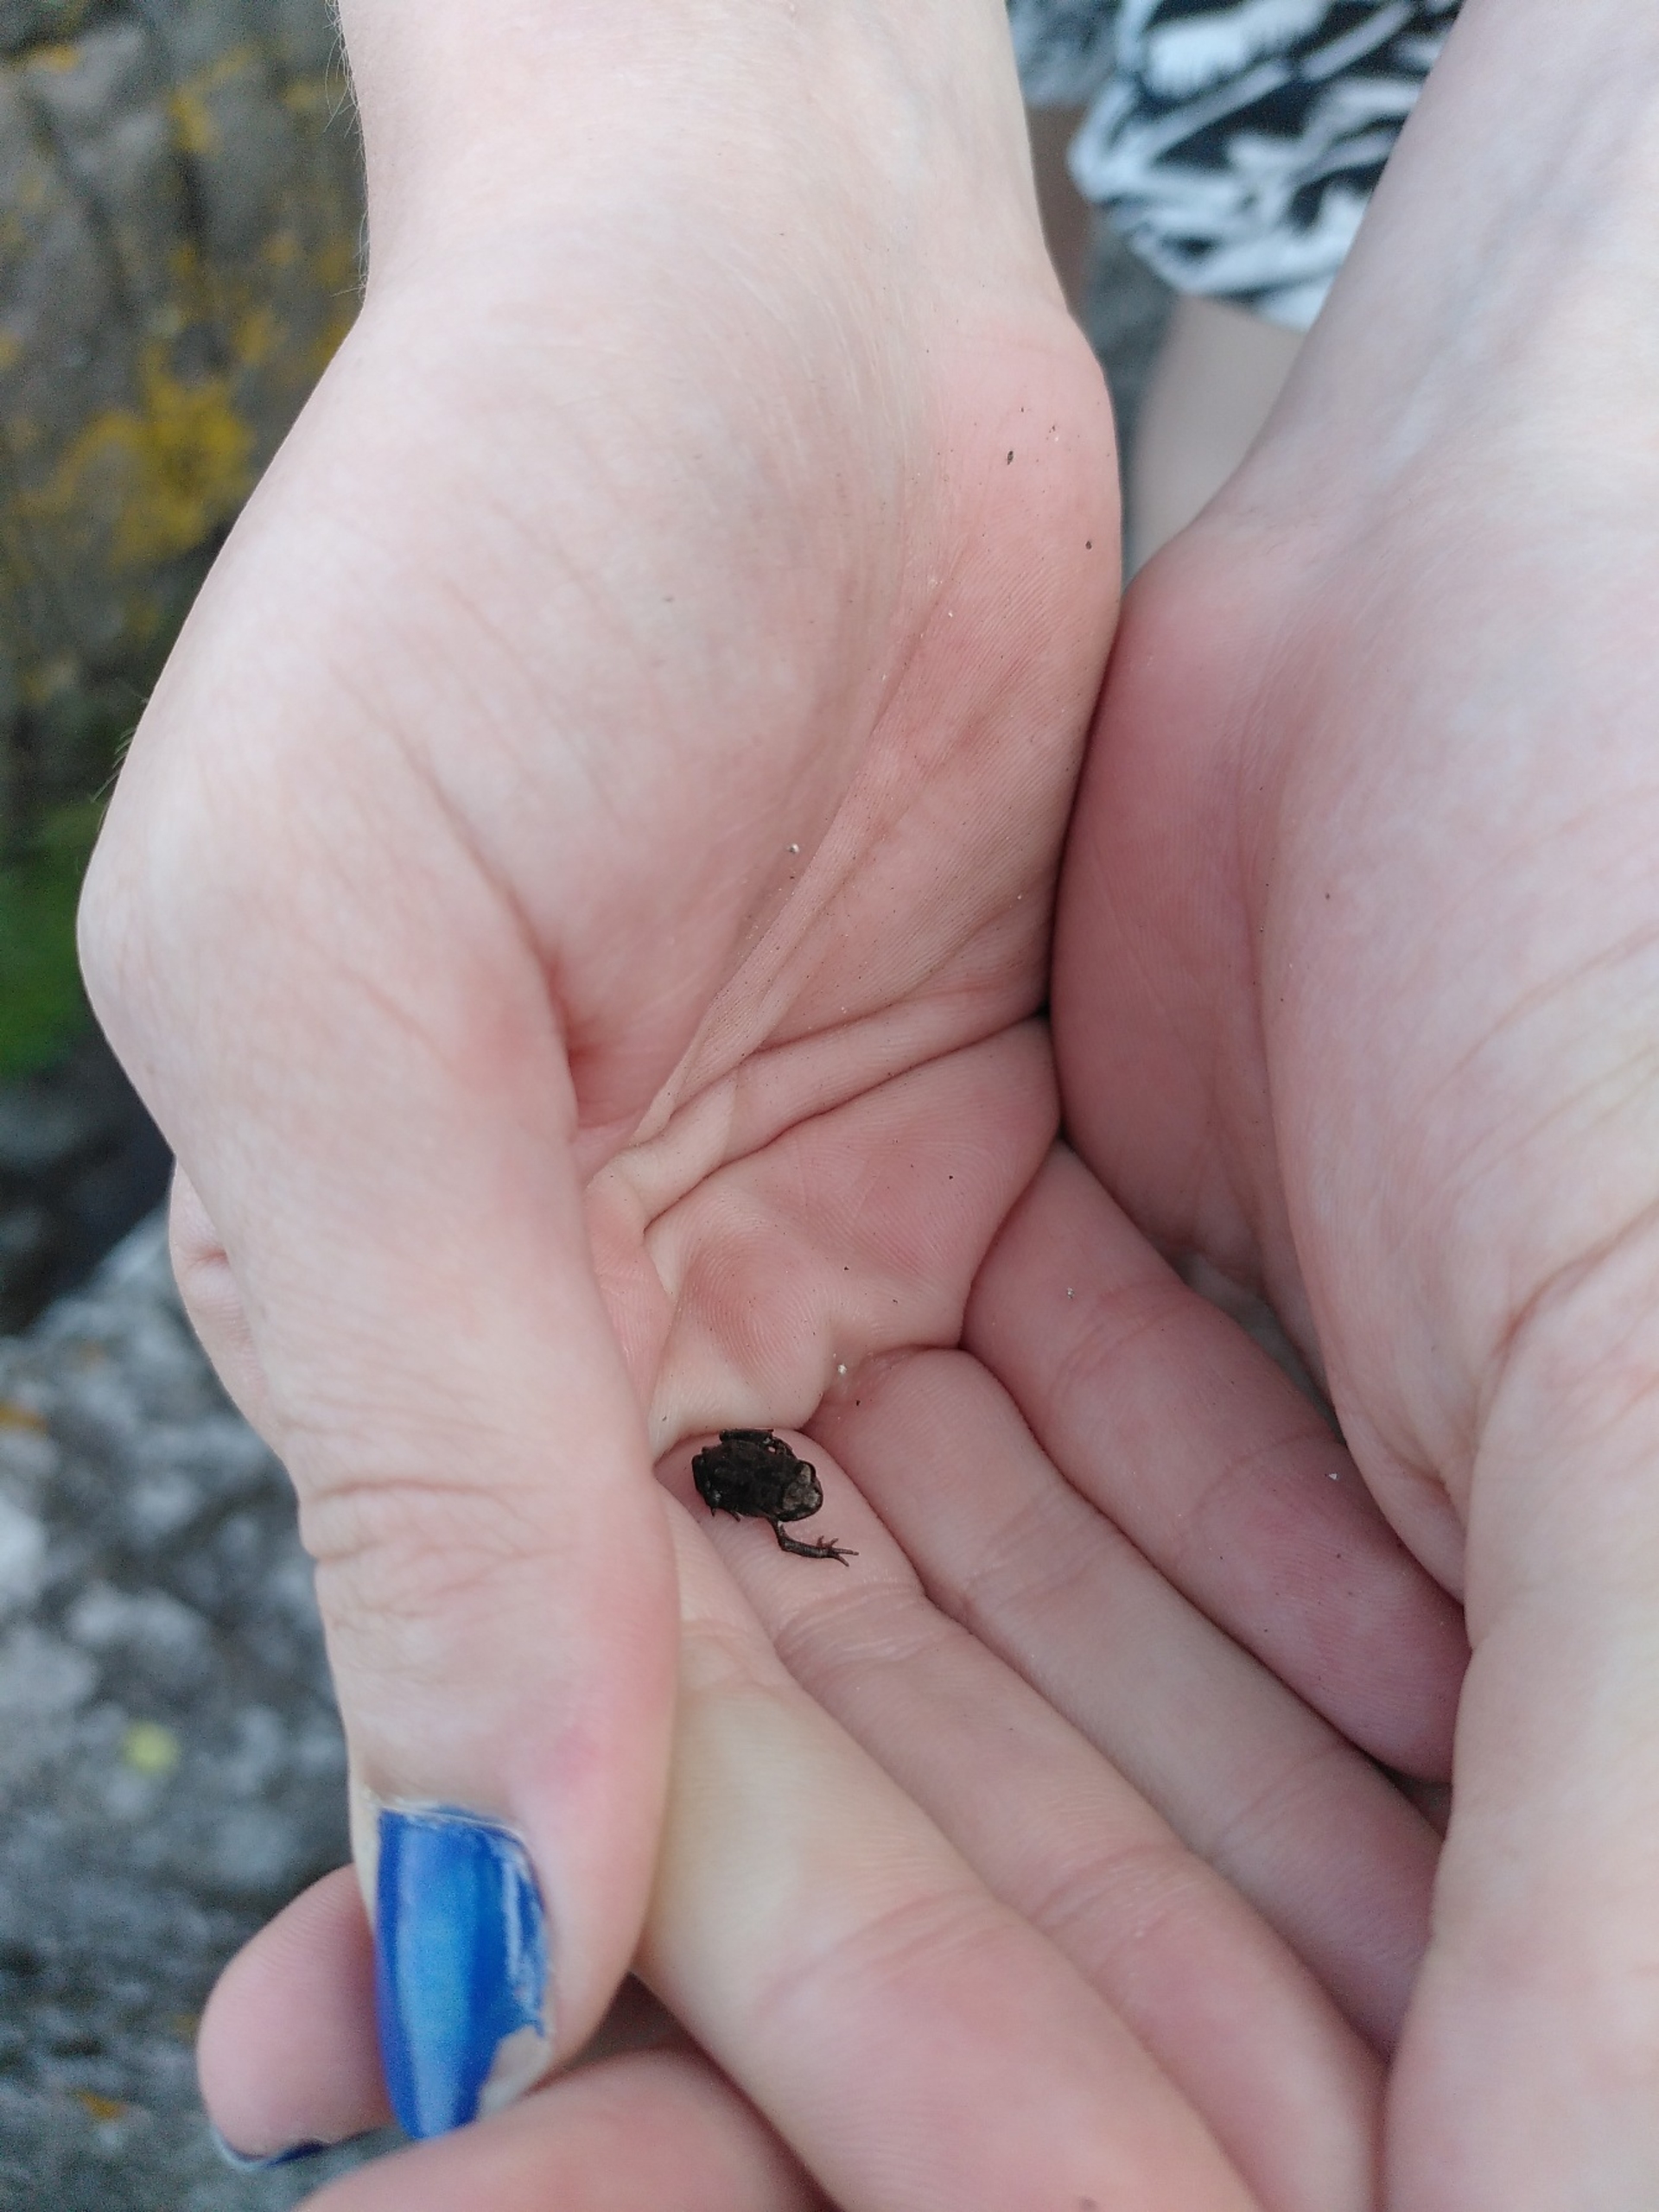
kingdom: Animalia
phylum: Chordata
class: Amphibia
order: Anura
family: Bufonidae
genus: Bufo
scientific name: Bufo bufo
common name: Skrubtudse
